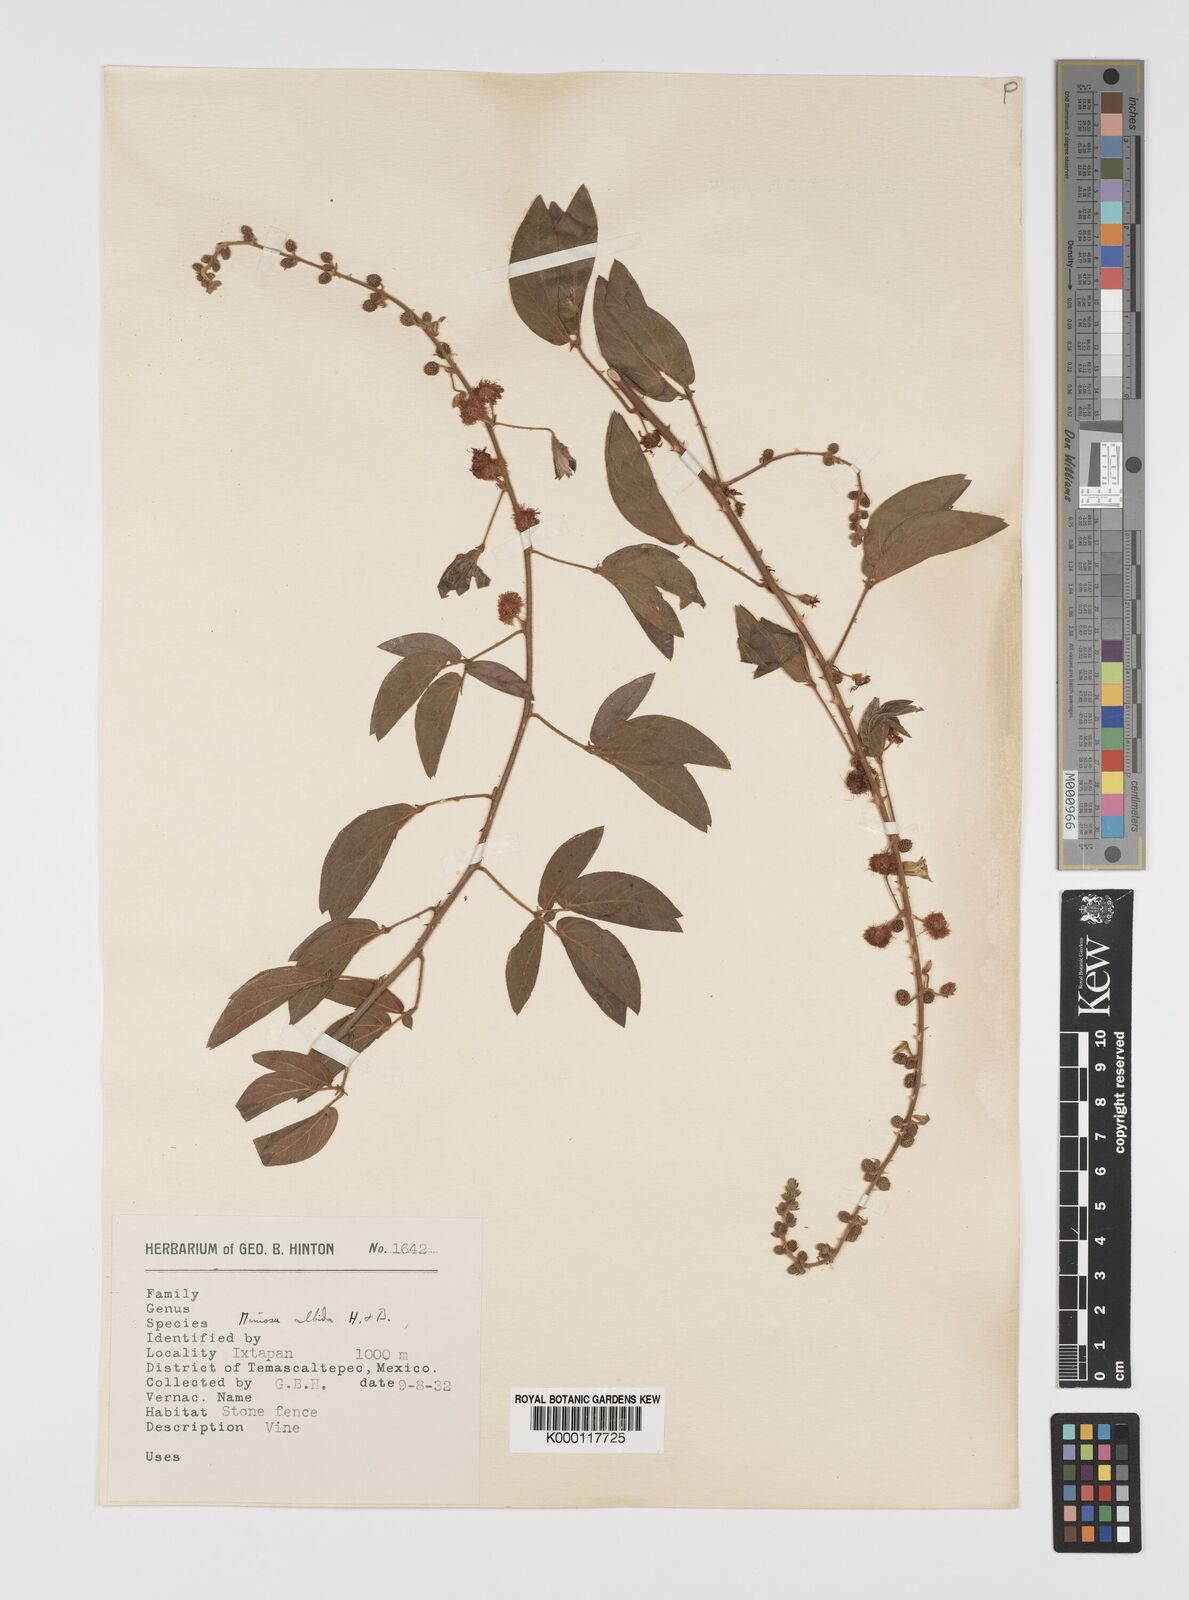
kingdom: Plantae
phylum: Tracheophyta
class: Magnoliopsida
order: Fabales
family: Fabaceae
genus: Mimosa
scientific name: Mimosa albida
